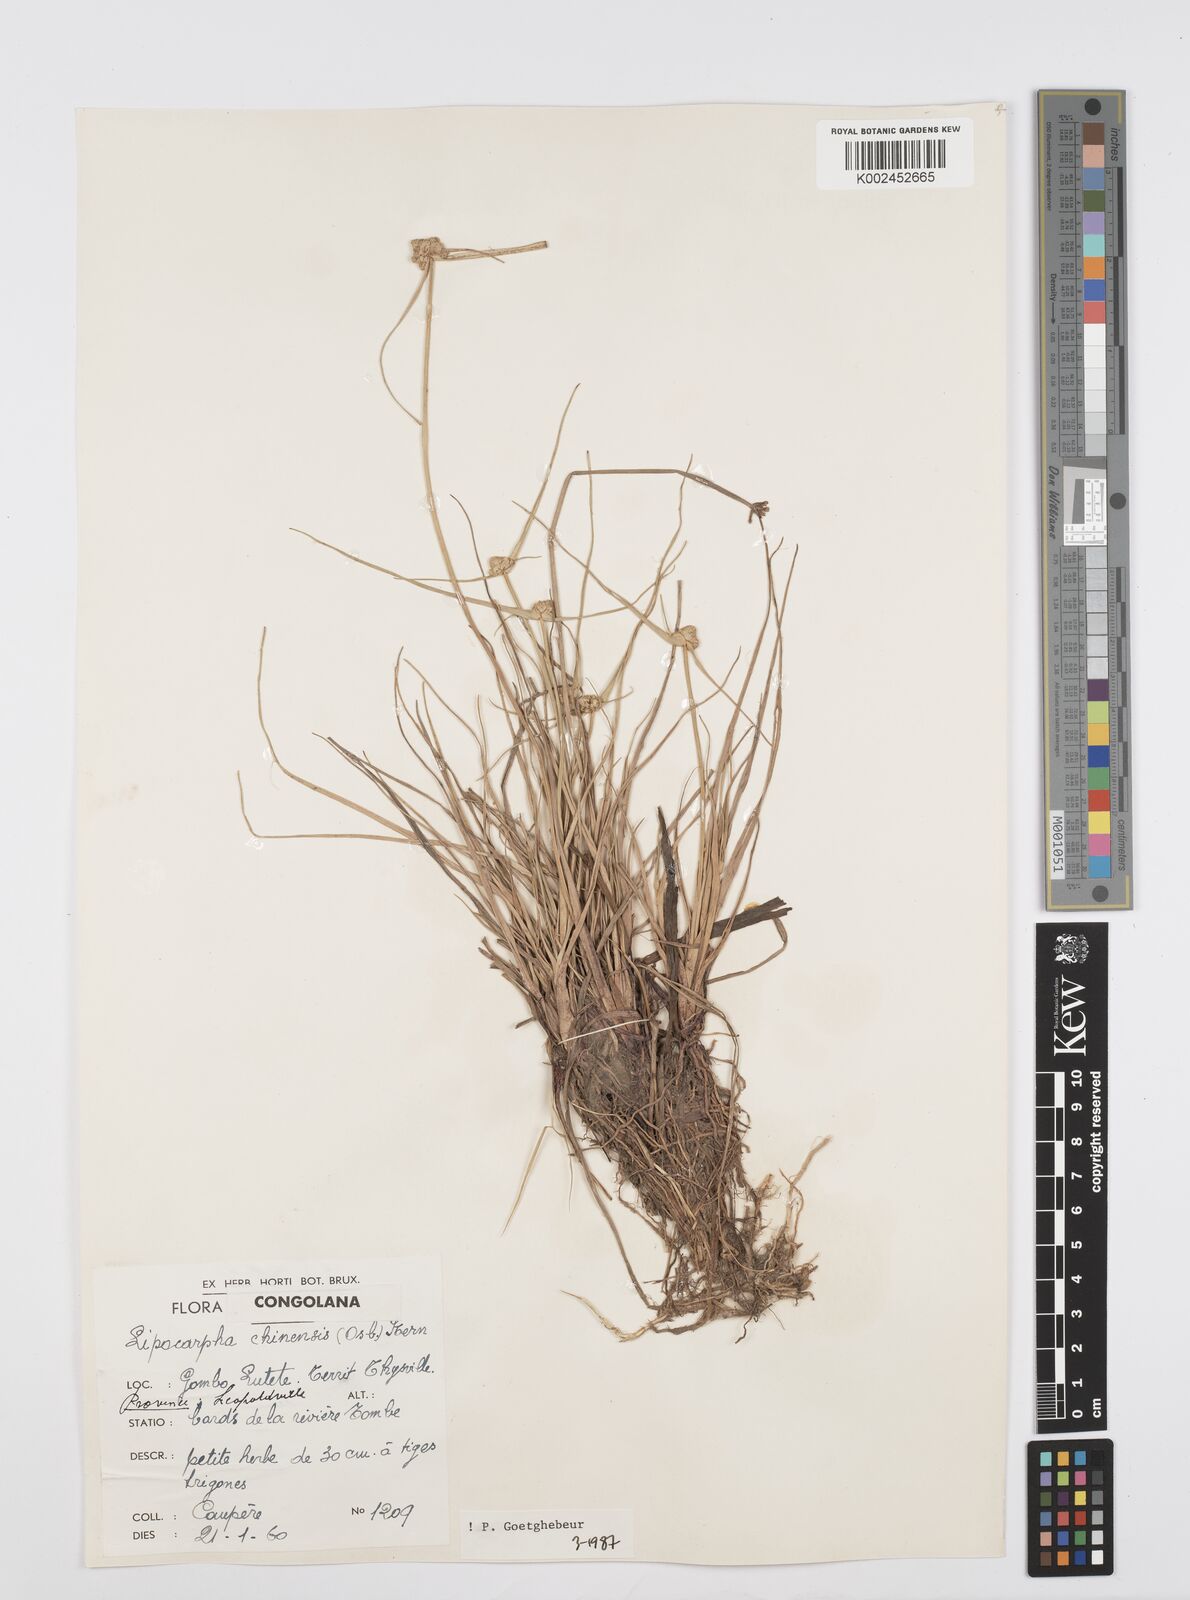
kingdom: Plantae
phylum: Tracheophyta
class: Liliopsida
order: Poales
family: Cyperaceae
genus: Cyperus
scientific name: Cyperus albescens
